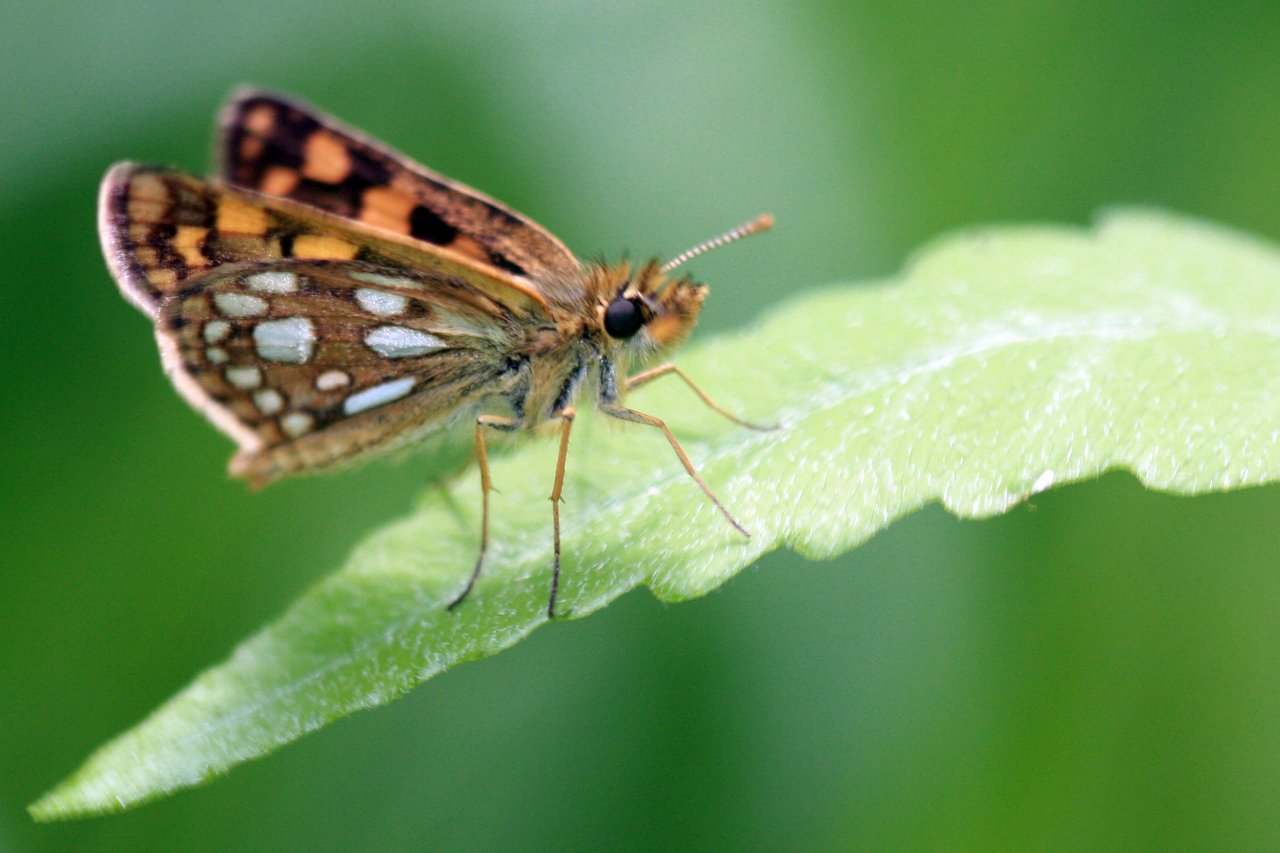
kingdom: Animalia
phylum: Arthropoda
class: Insecta
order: Lepidoptera
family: Hesperiidae
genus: Carterocephalus
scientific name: Carterocephalus palaemon
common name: Chequered Skipper
